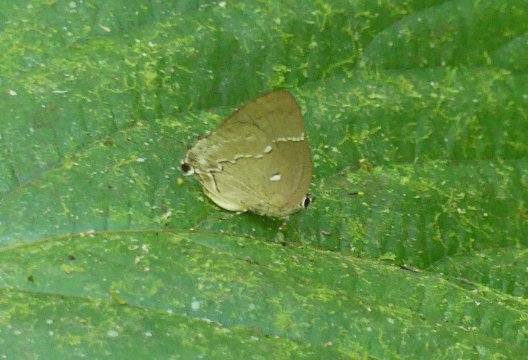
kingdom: Animalia
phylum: Arthropoda
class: Insecta
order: Lepidoptera
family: Lycaenidae
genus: Thecla
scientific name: Thecla mutina
